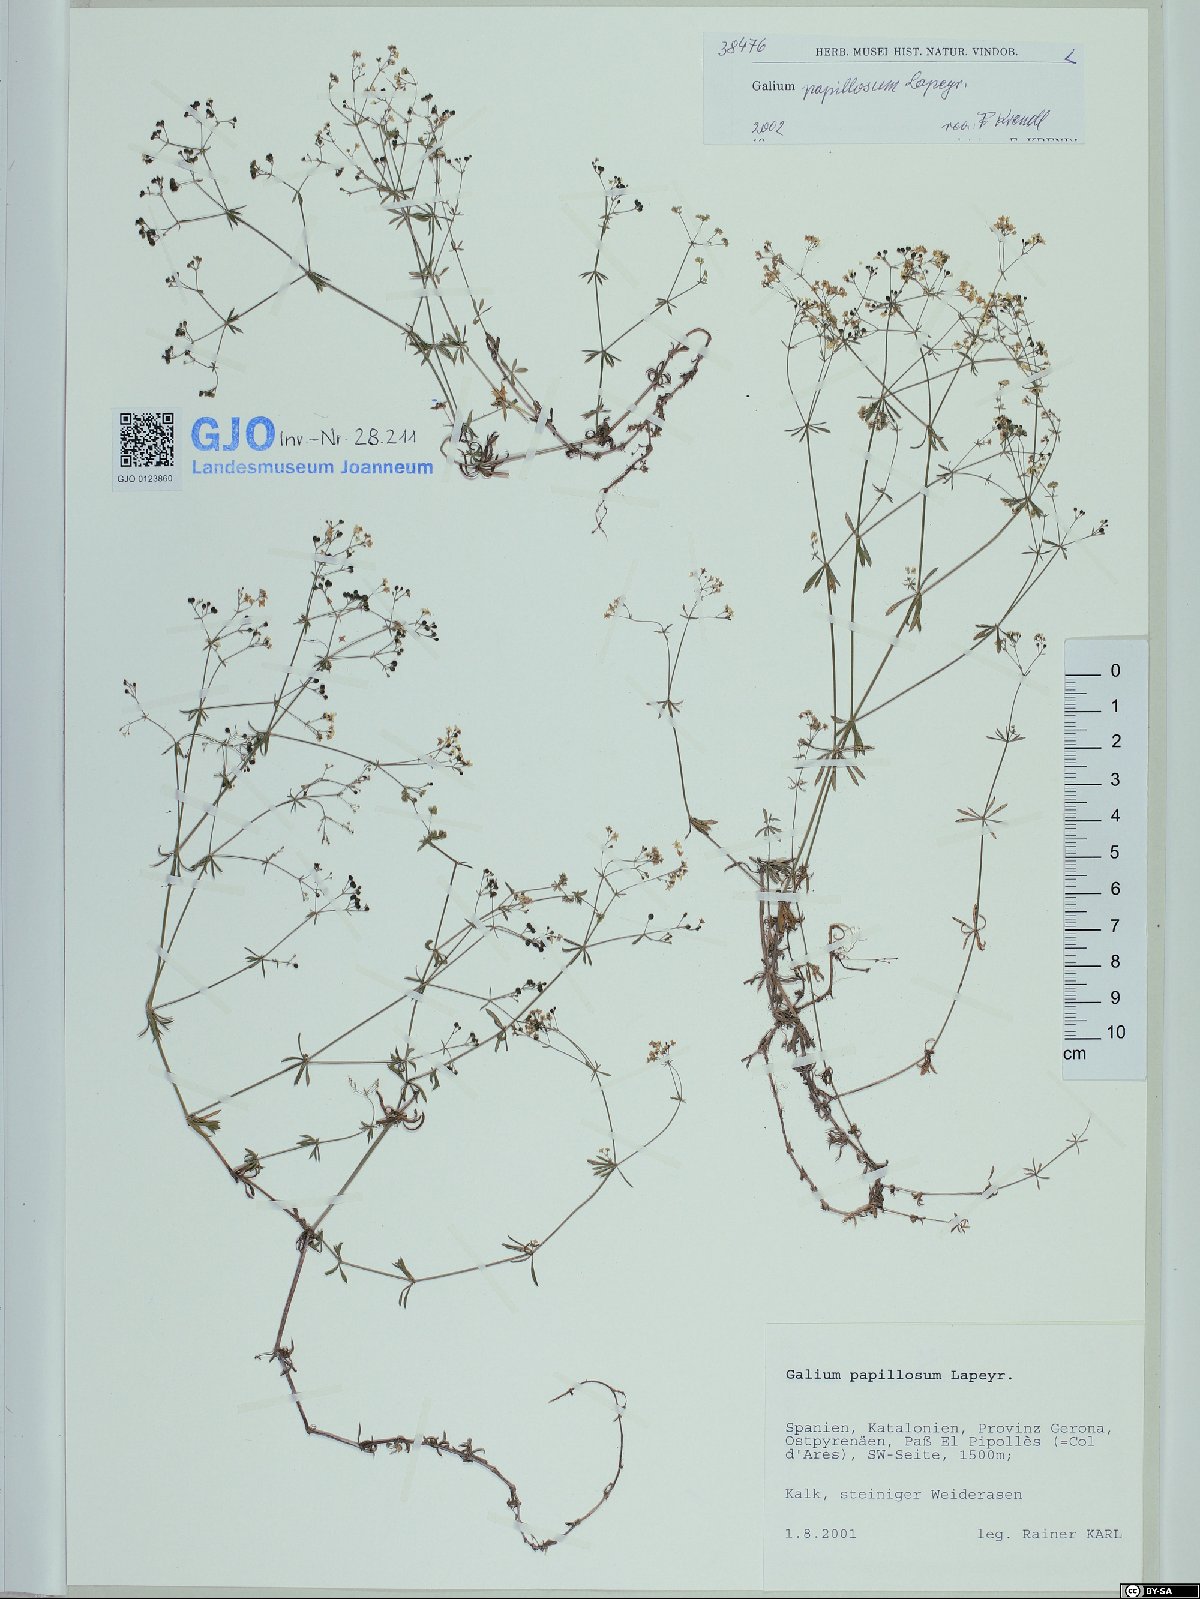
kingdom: Plantae
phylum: Tracheophyta
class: Magnoliopsida
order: Gentianales
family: Rubiaceae
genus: Galium
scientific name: Galium papillosum
